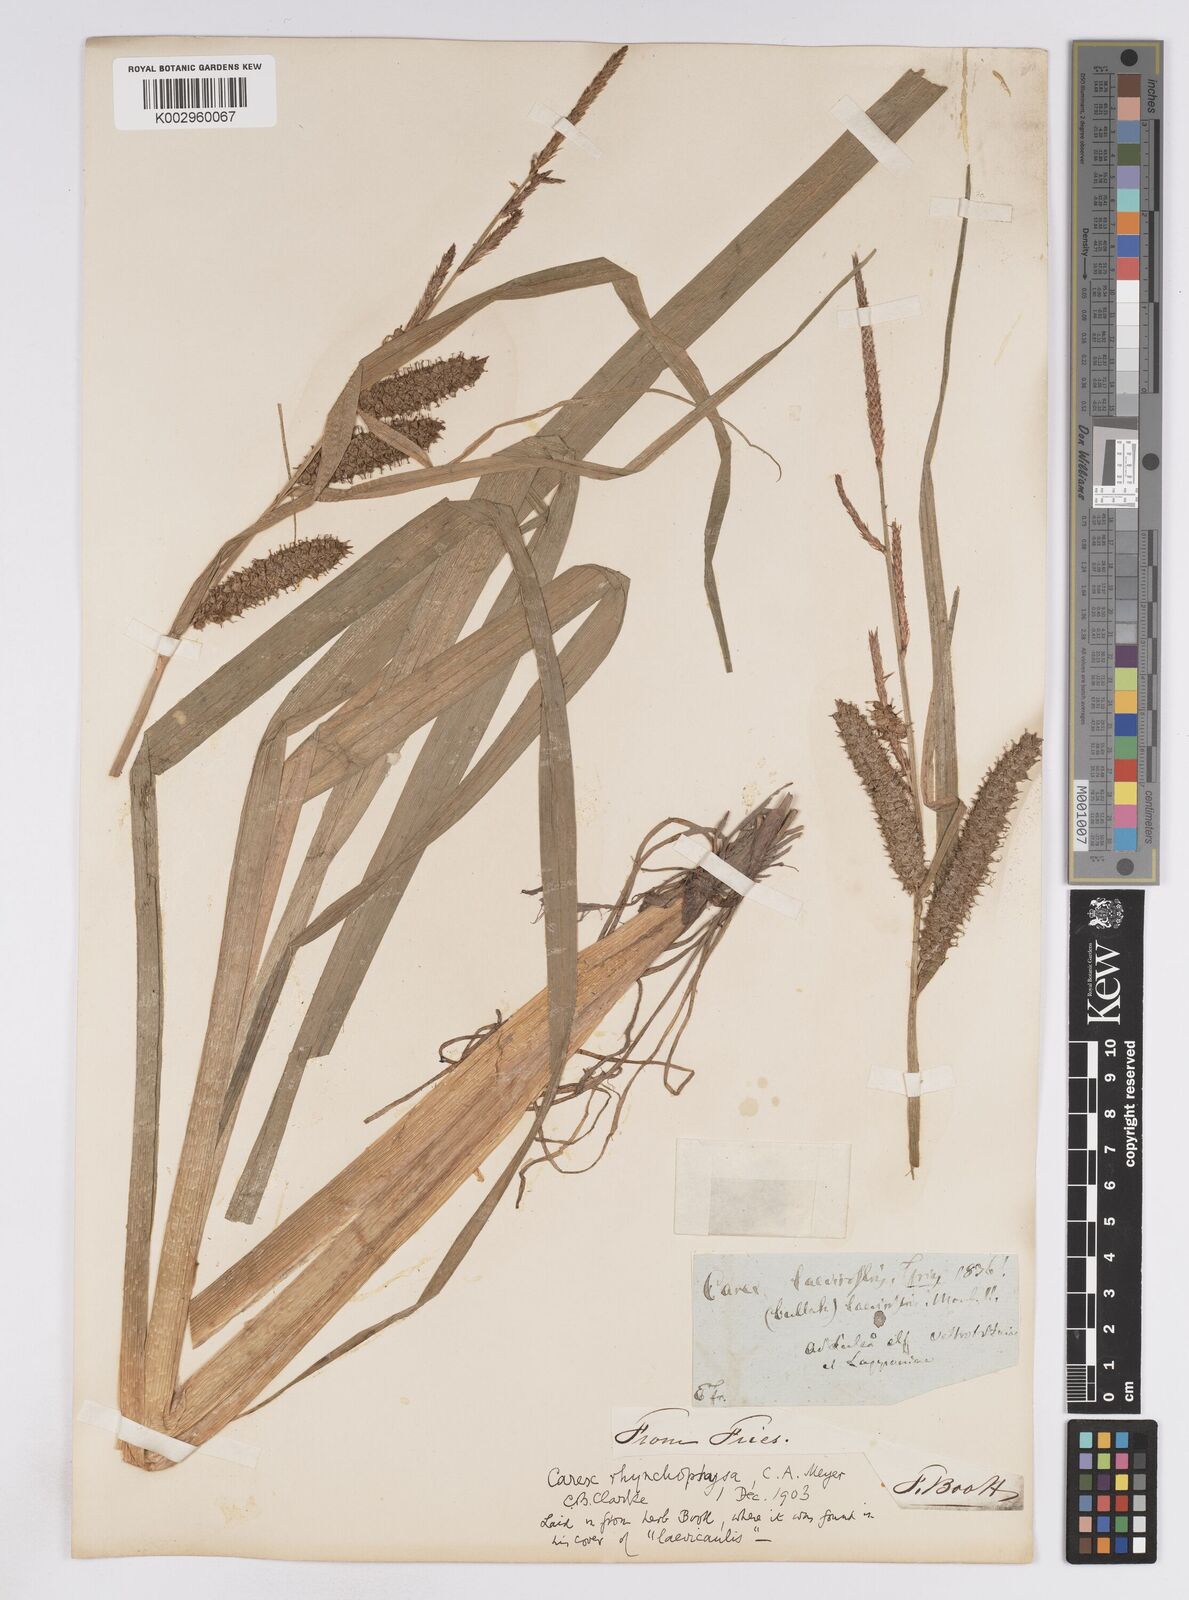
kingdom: Plantae
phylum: Tracheophyta
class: Liliopsida
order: Poales
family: Cyperaceae
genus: Carex
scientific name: Carex utriculata
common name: Beaked sedge
